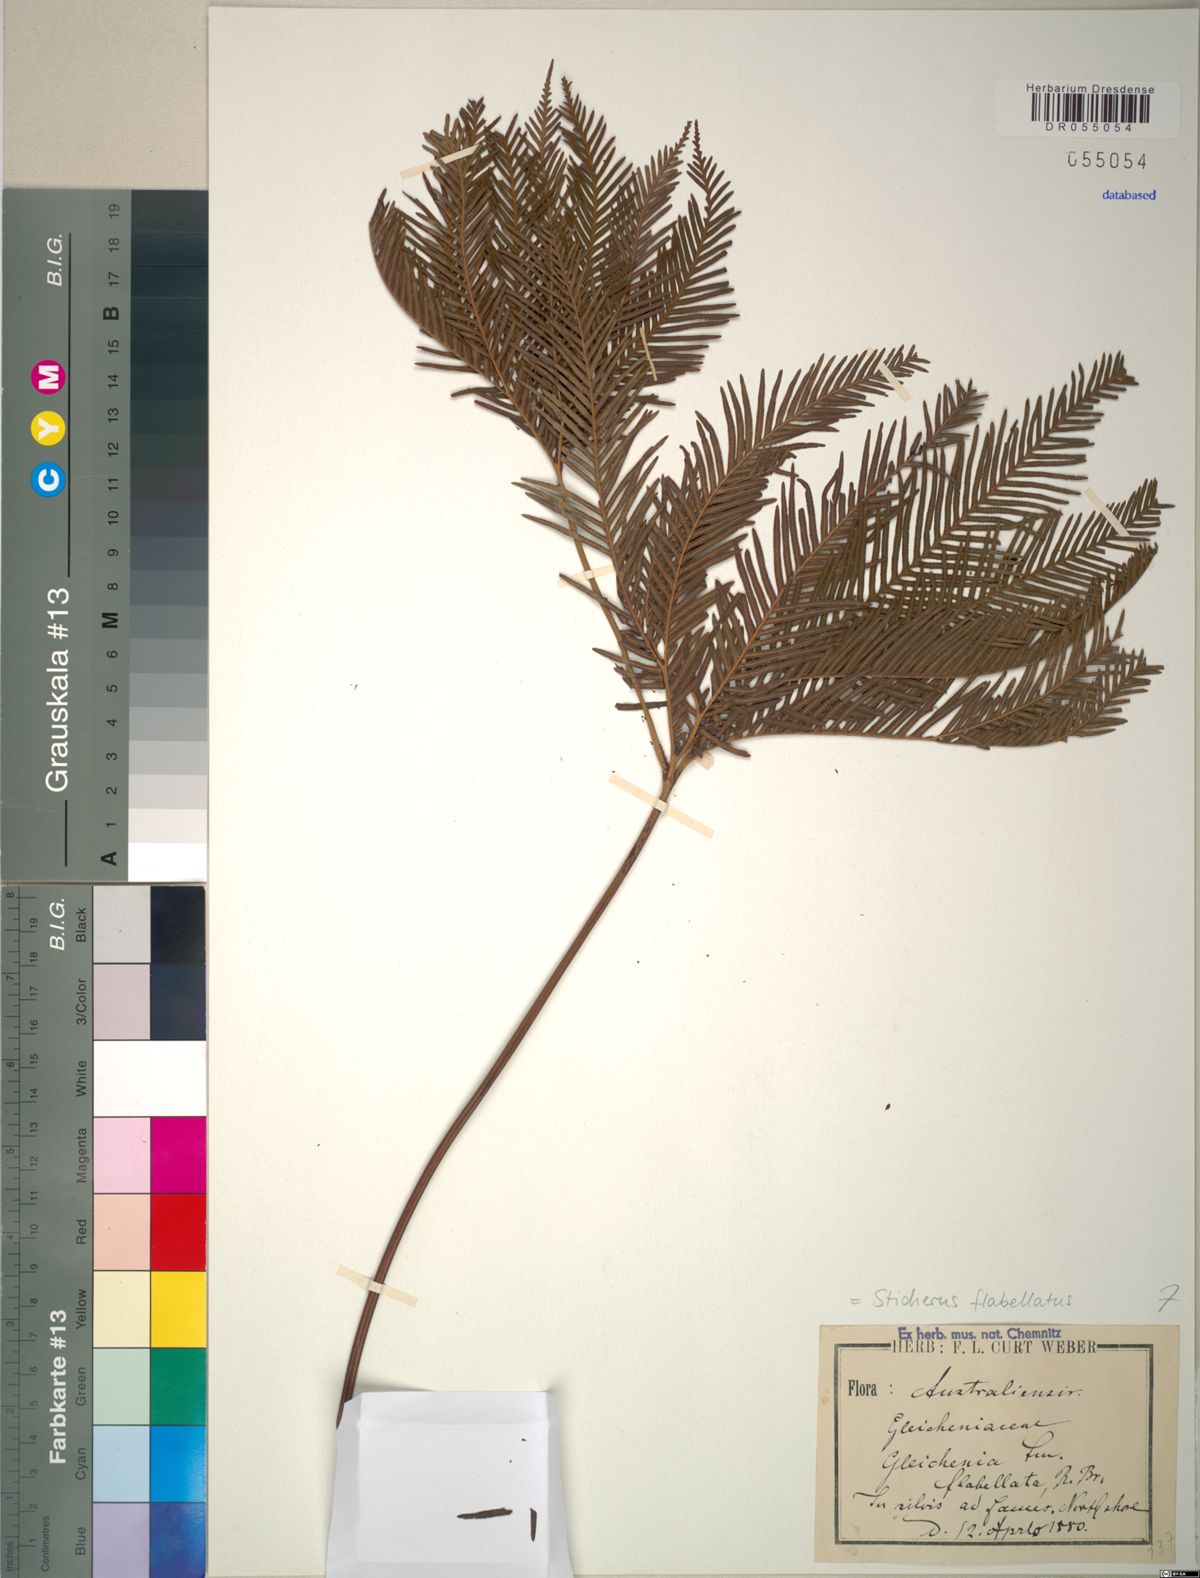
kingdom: Plantae
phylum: Tracheophyta
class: Polypodiopsida
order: Gleicheniales
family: Gleicheniaceae
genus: Sticherus
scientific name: Sticherus flabellatus
